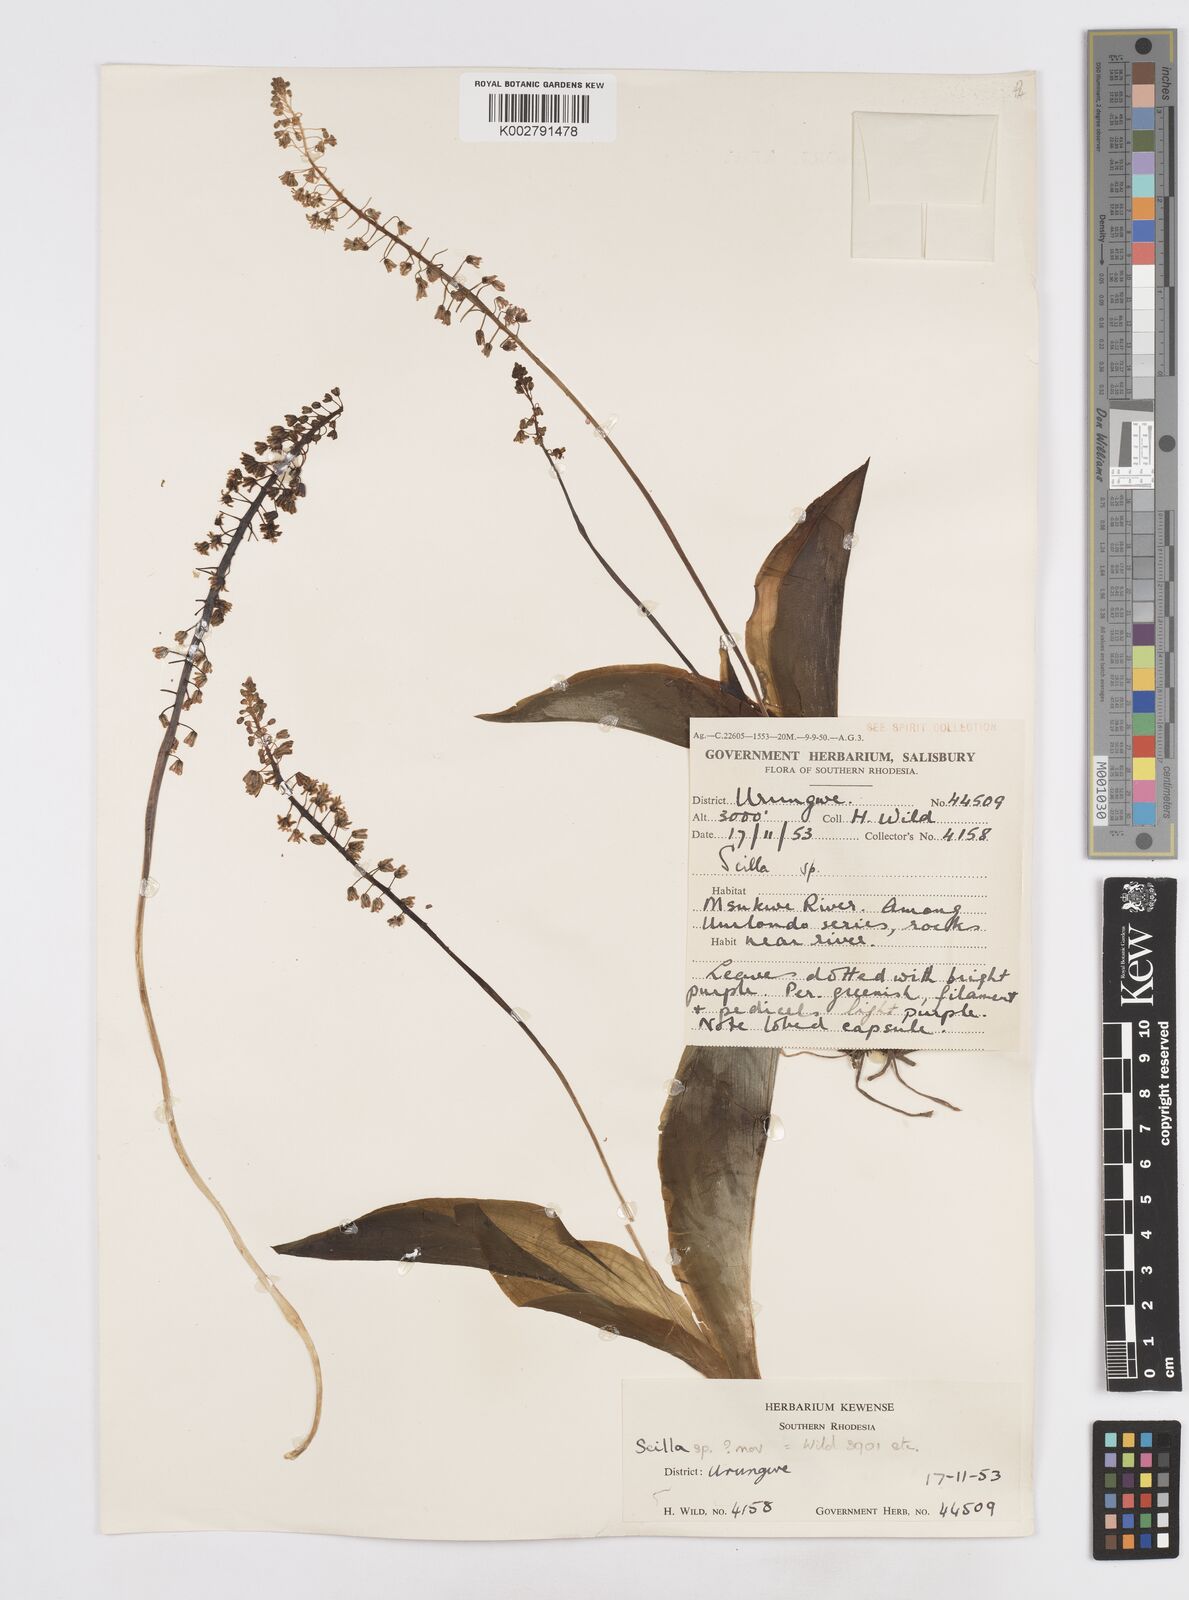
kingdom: Plantae
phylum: Tracheophyta
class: Liliopsida
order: Asparagales
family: Asparagaceae
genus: Scilla
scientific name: Scilla
